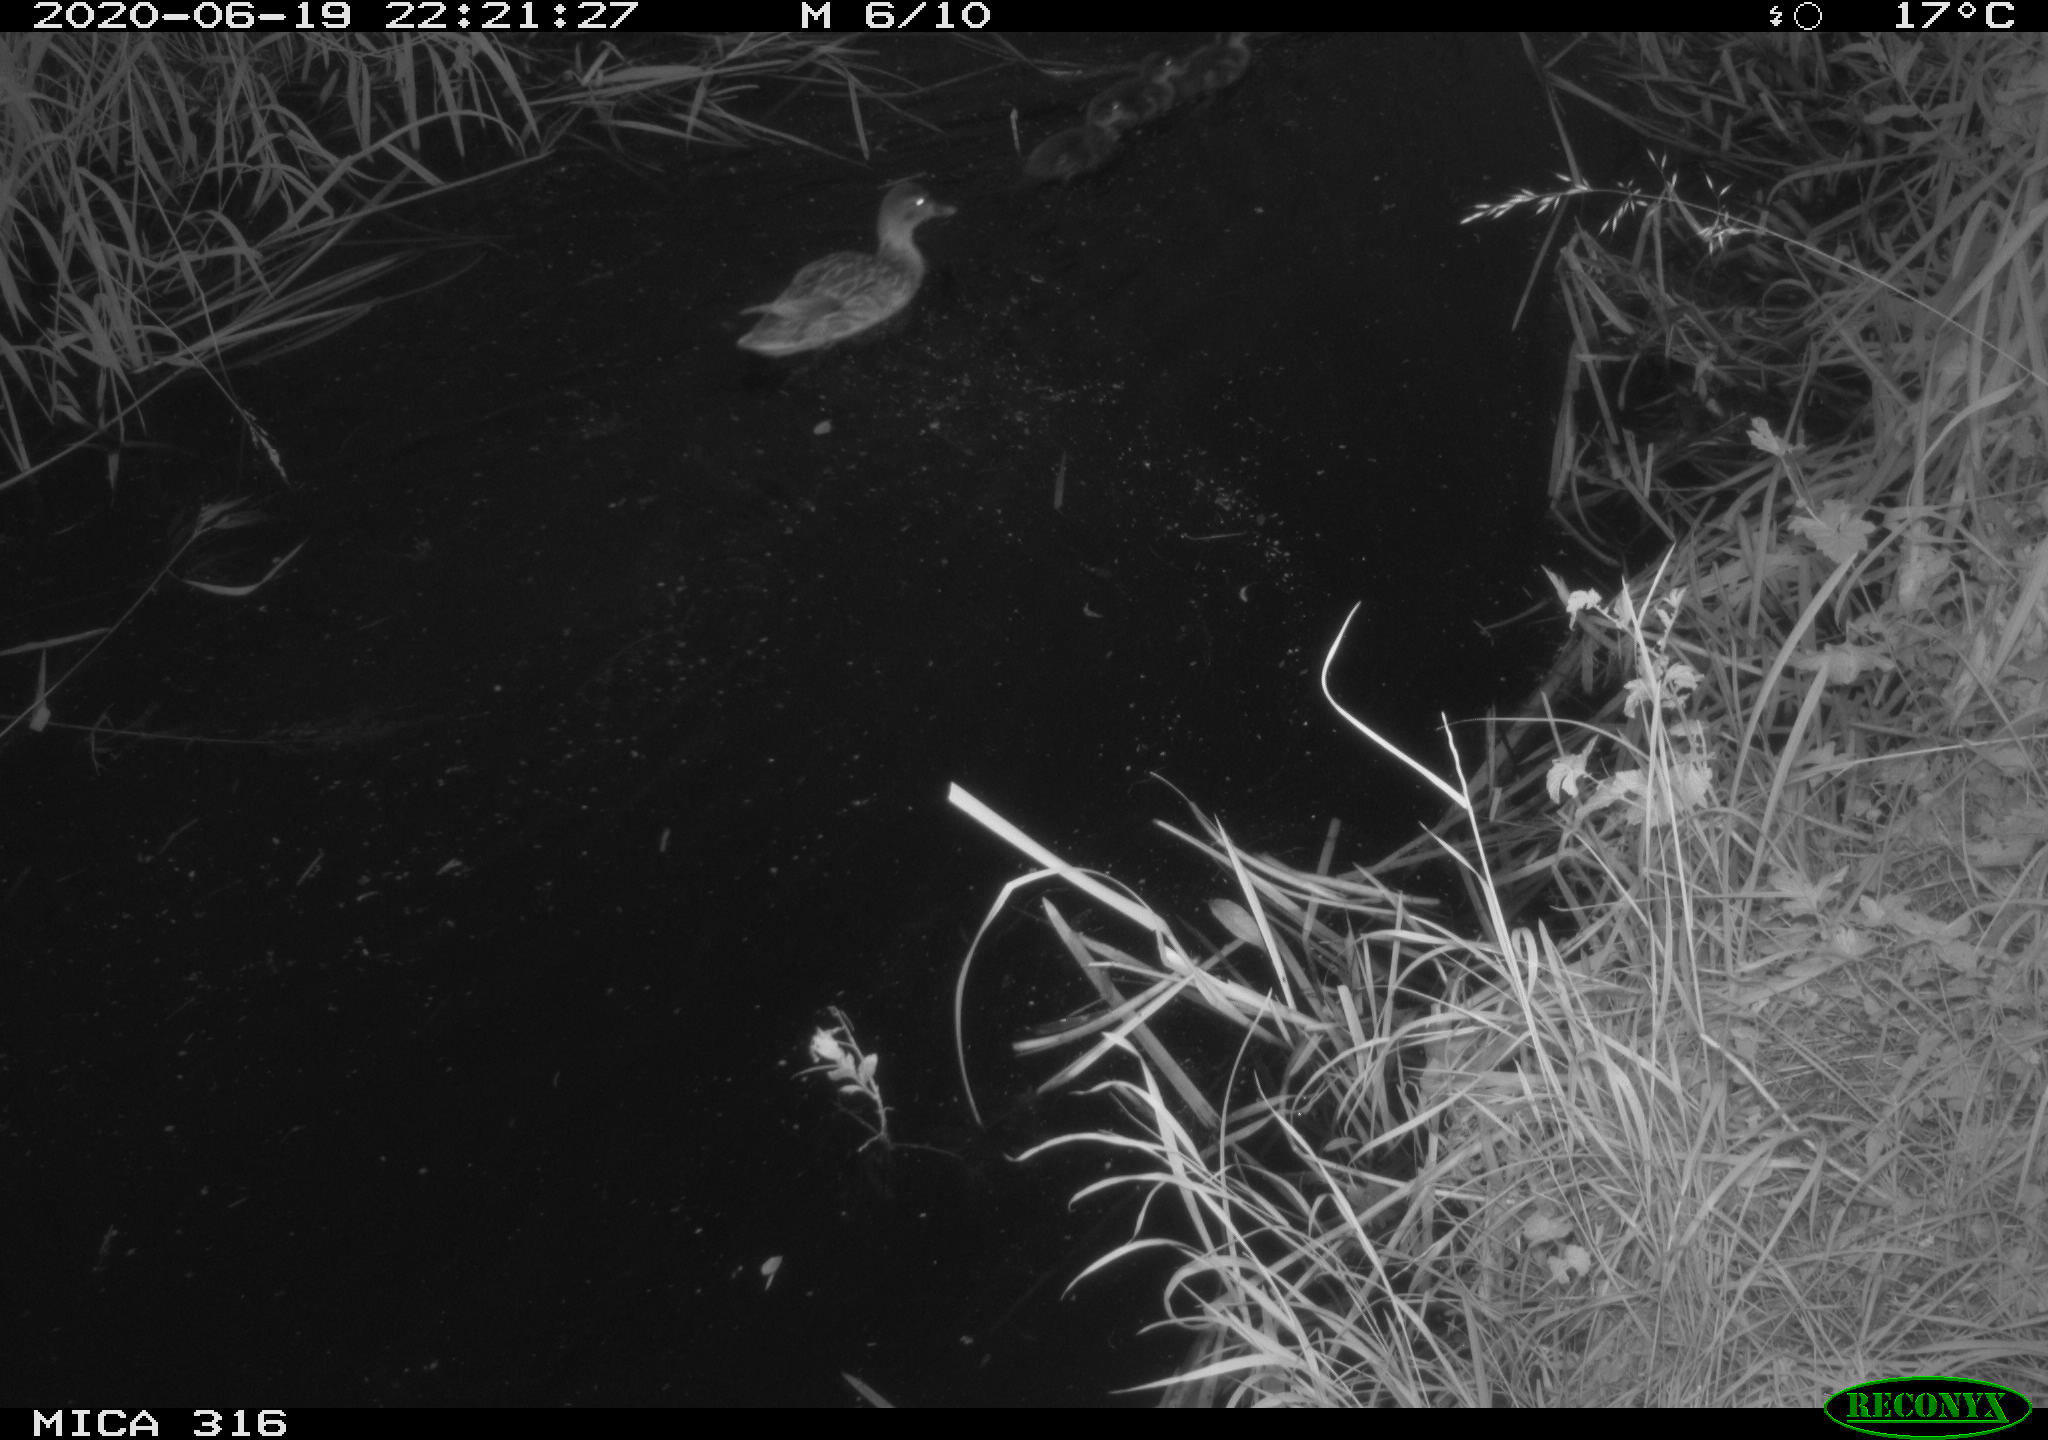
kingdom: Animalia
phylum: Chordata
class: Aves
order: Anseriformes
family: Anatidae
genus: Anas
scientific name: Anas platyrhynchos
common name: Mallard
